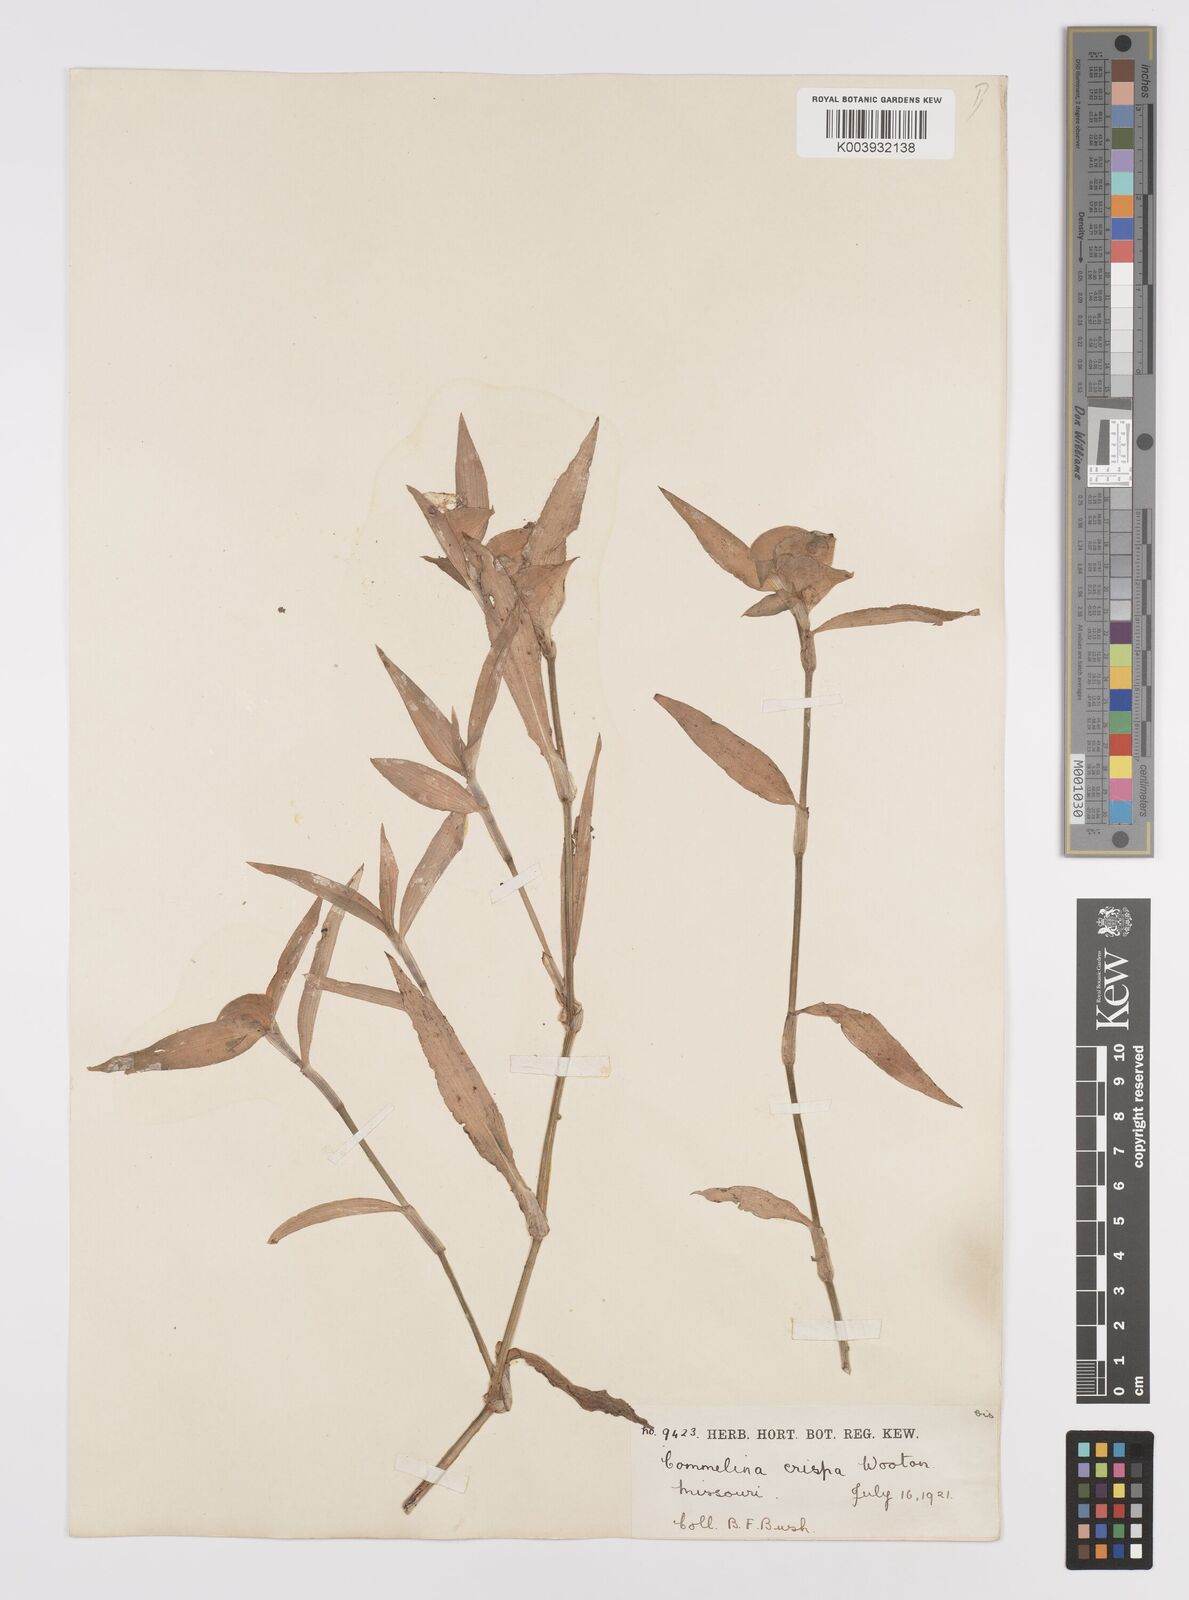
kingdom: Plantae
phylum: Tracheophyta
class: Liliopsida
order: Commelinales
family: Commelinaceae
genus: Commelina
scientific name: Commelina erecta
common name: Blousel blommetjie
